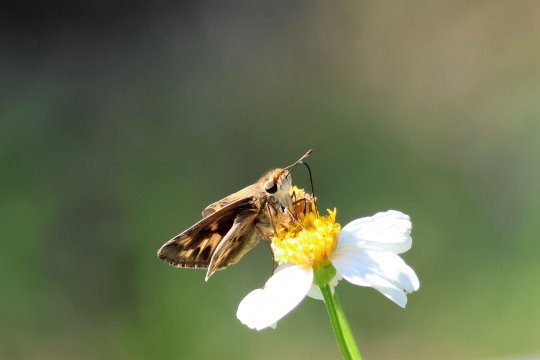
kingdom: Animalia
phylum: Arthropoda
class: Insecta
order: Lepidoptera
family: Hesperiidae
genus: Hylephila
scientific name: Hylephila phyleus
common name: Fiery Skipper
